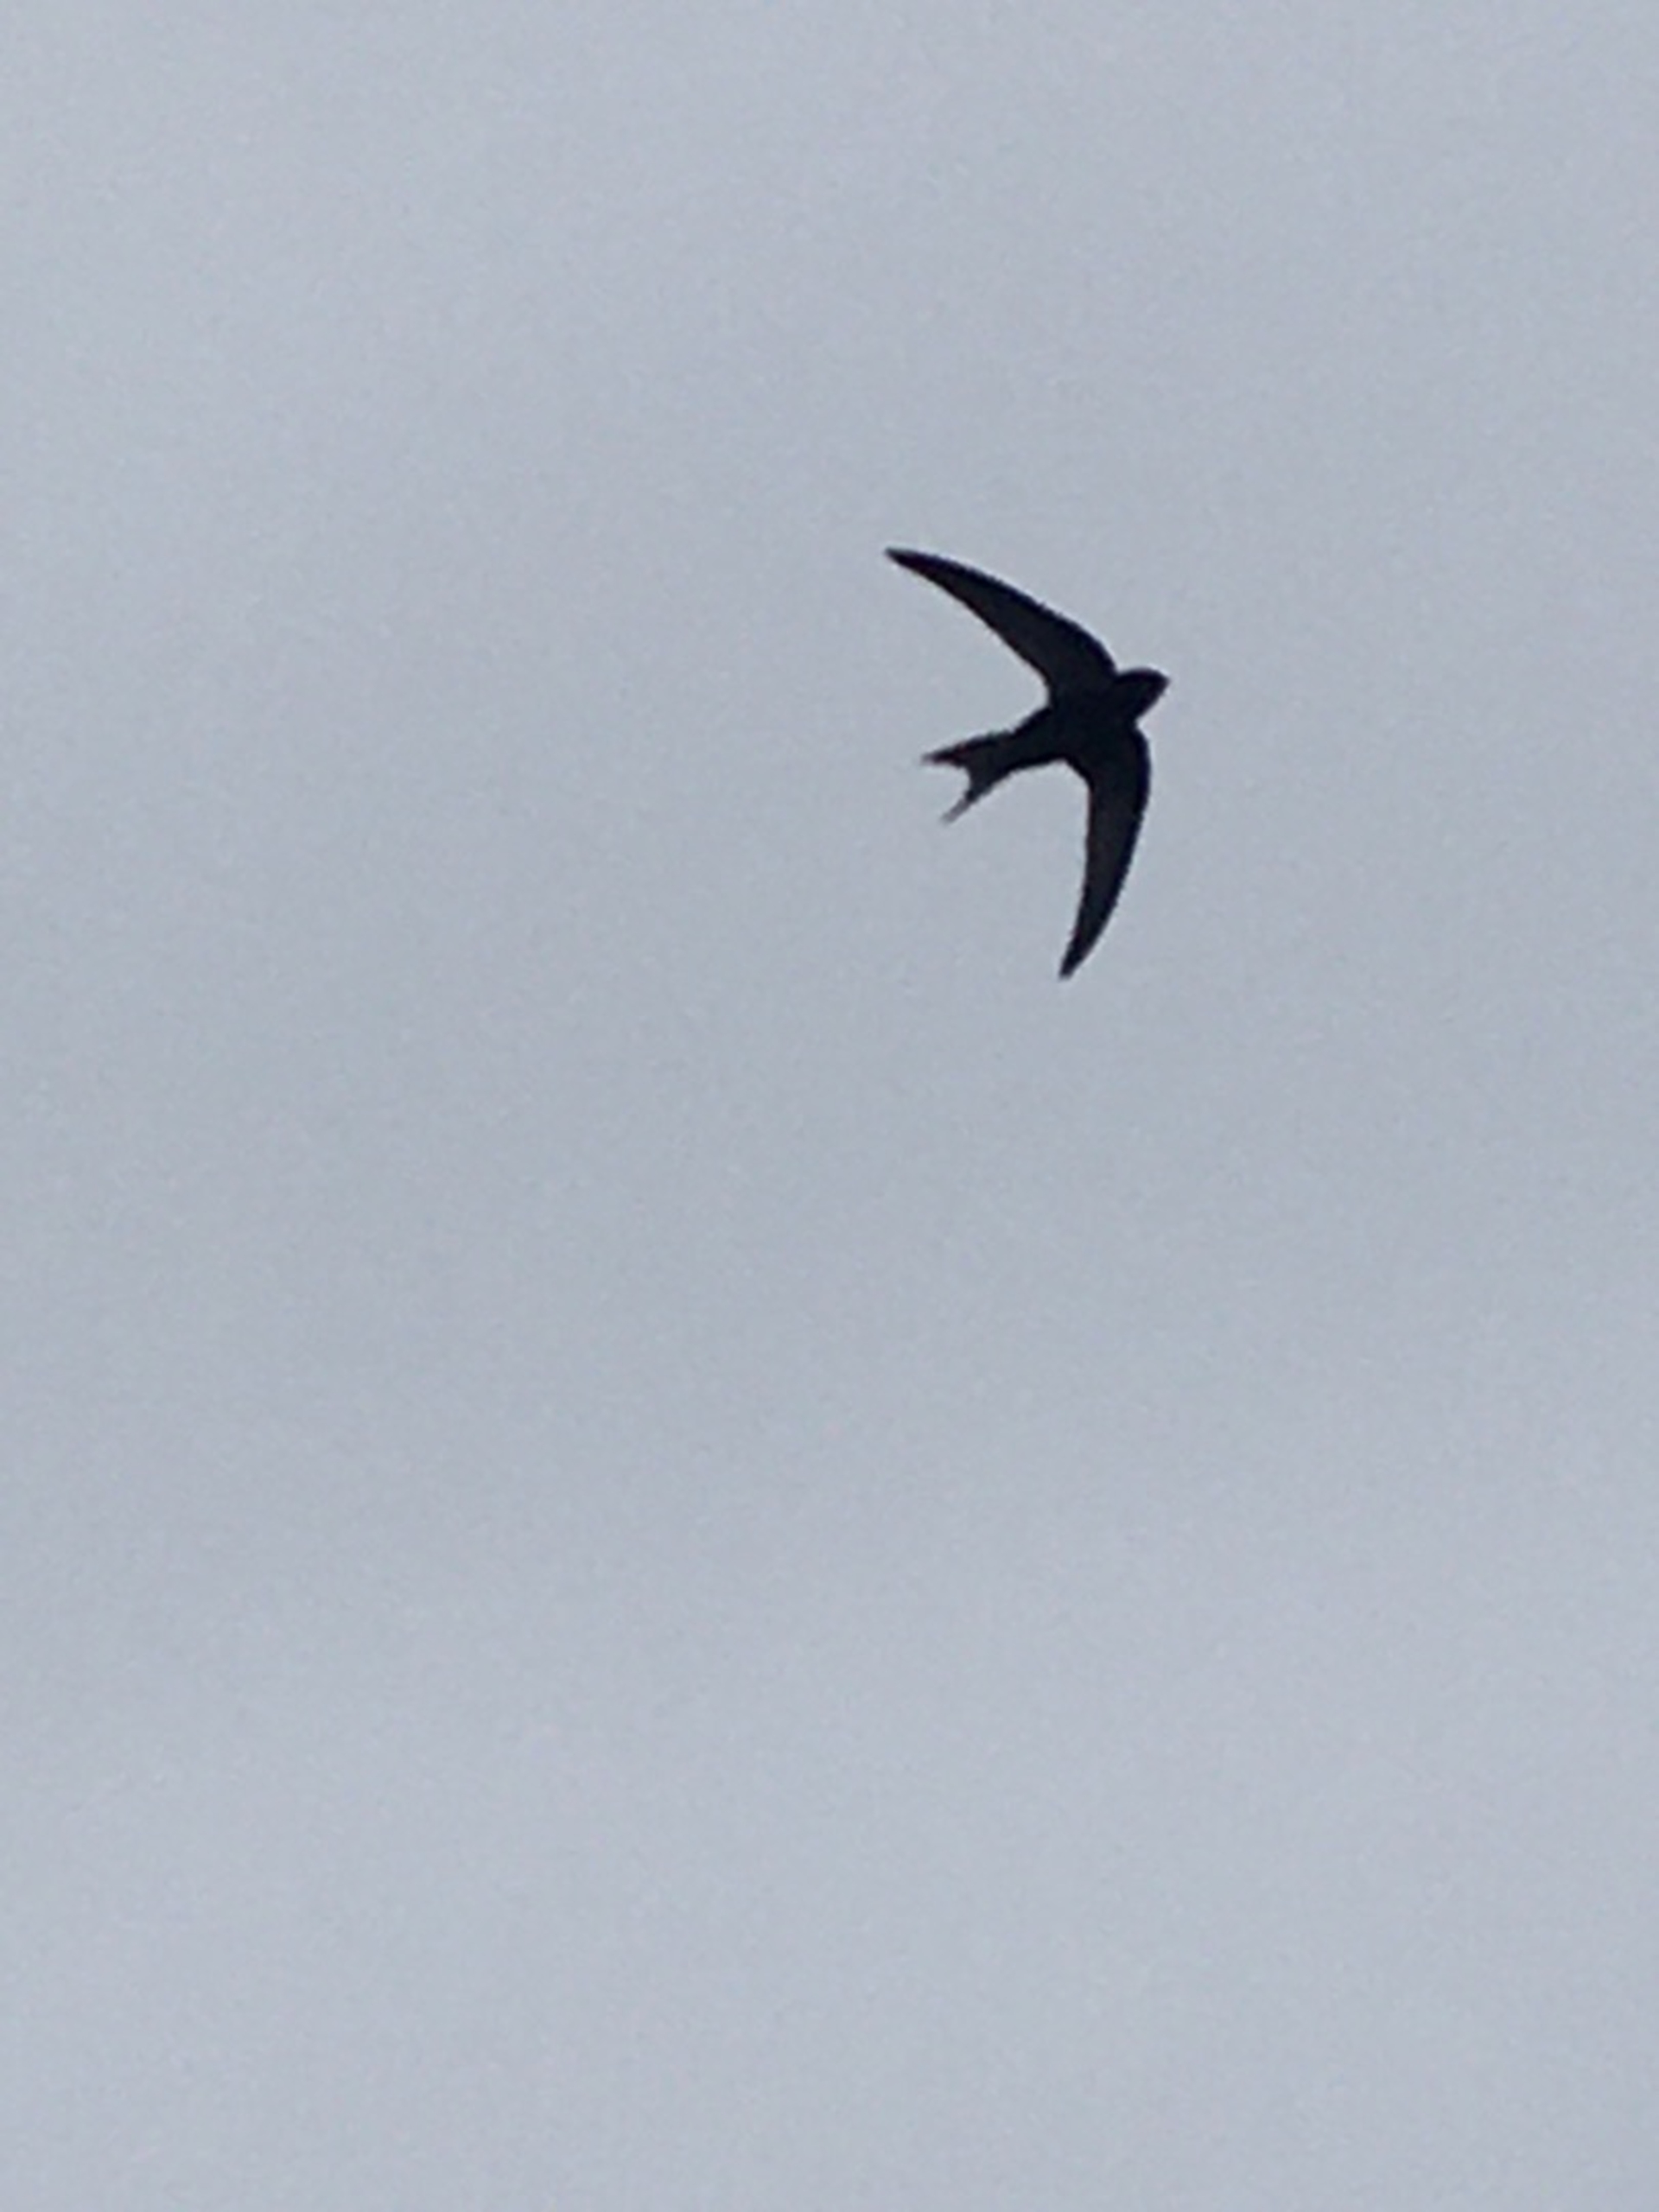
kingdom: Animalia
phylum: Chordata
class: Aves
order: Apodiformes
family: Apodidae
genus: Apus
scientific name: Apus apus
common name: Mursejler
